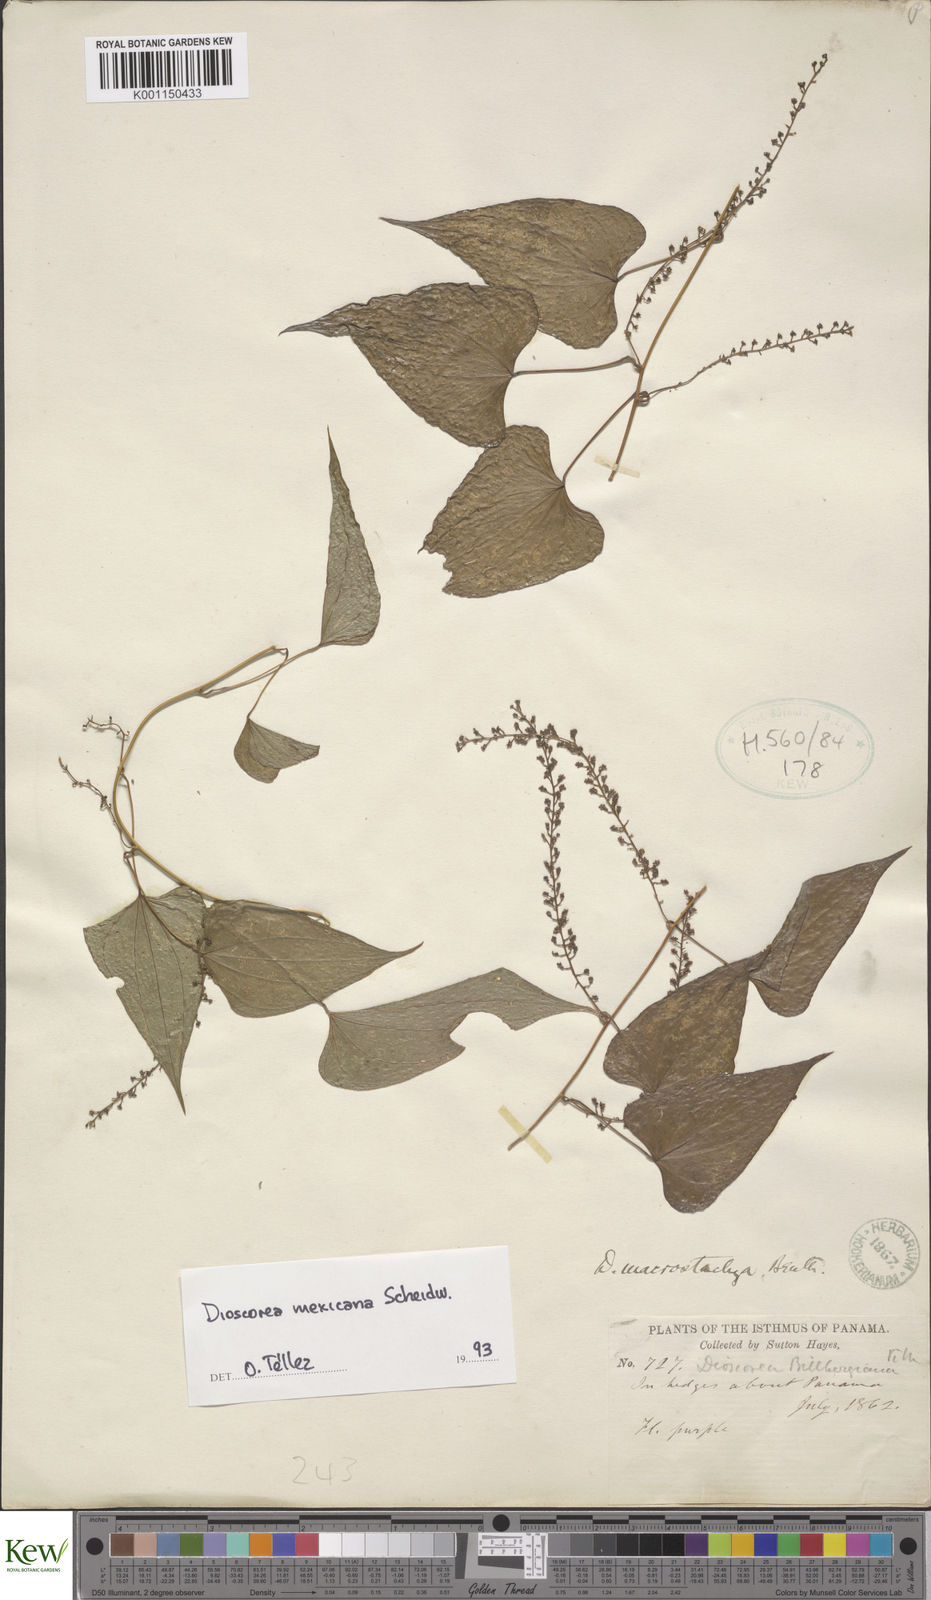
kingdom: Plantae
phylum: Tracheophyta
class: Liliopsida
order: Dioscoreales
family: Dioscoreaceae
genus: Dioscorea
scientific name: Dioscorea mexicana
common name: Mexican yam
